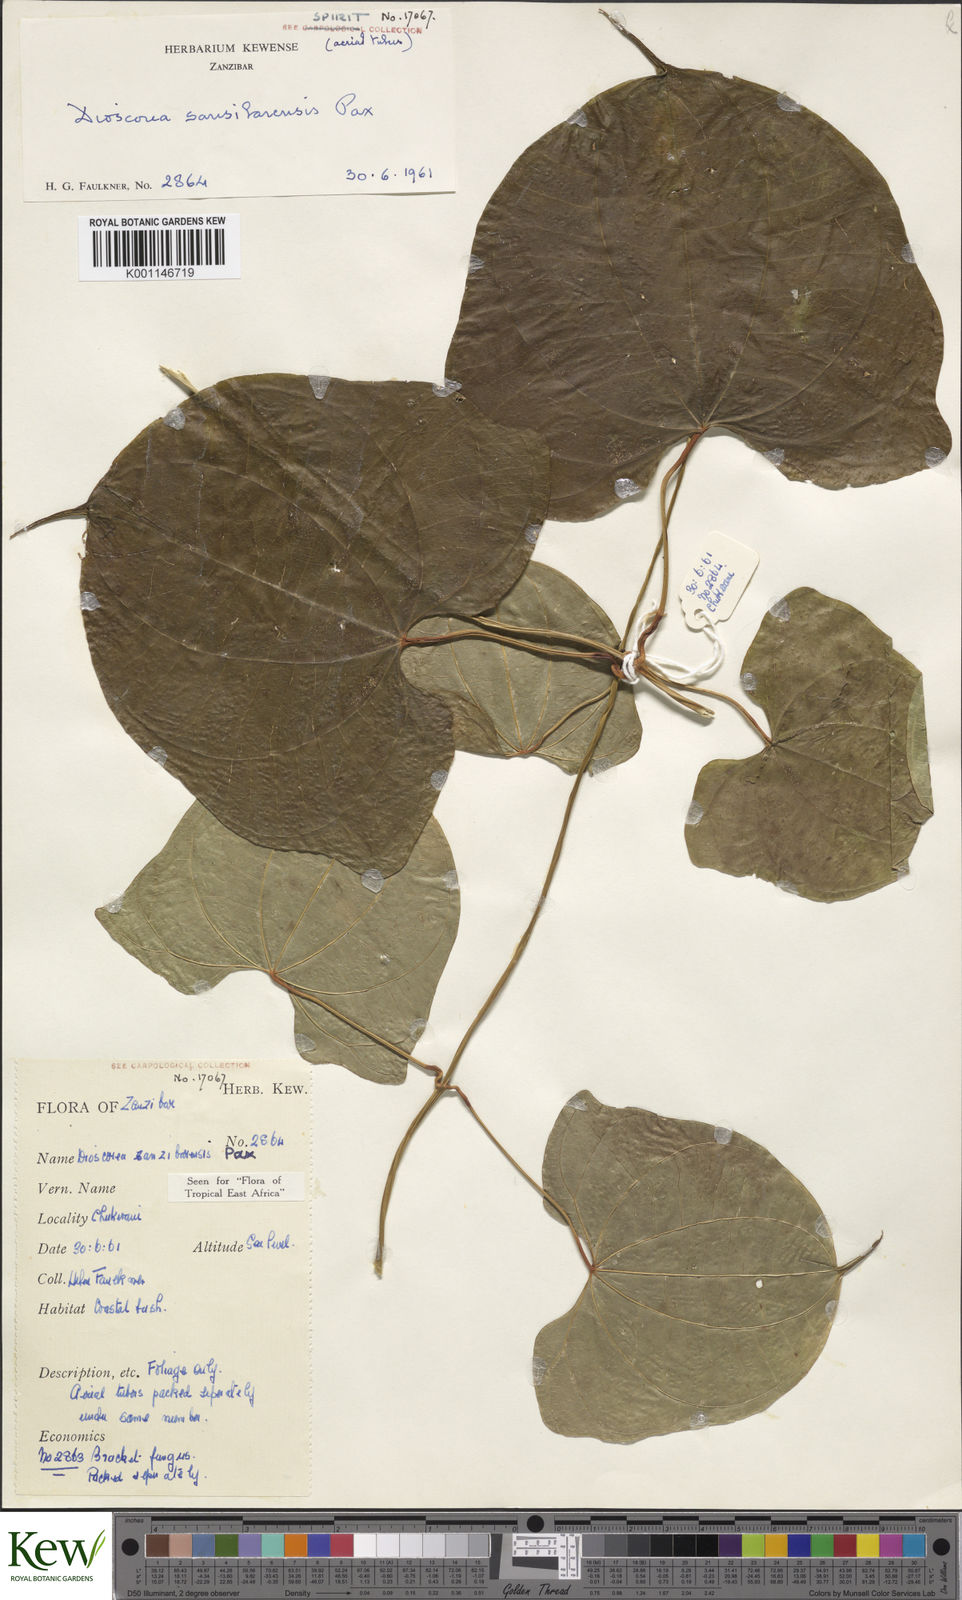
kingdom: Plantae
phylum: Tracheophyta
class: Liliopsida
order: Dioscoreales
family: Dioscoreaceae
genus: Dioscorea
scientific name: Dioscorea sansibarensis
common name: Zanzibar yam
